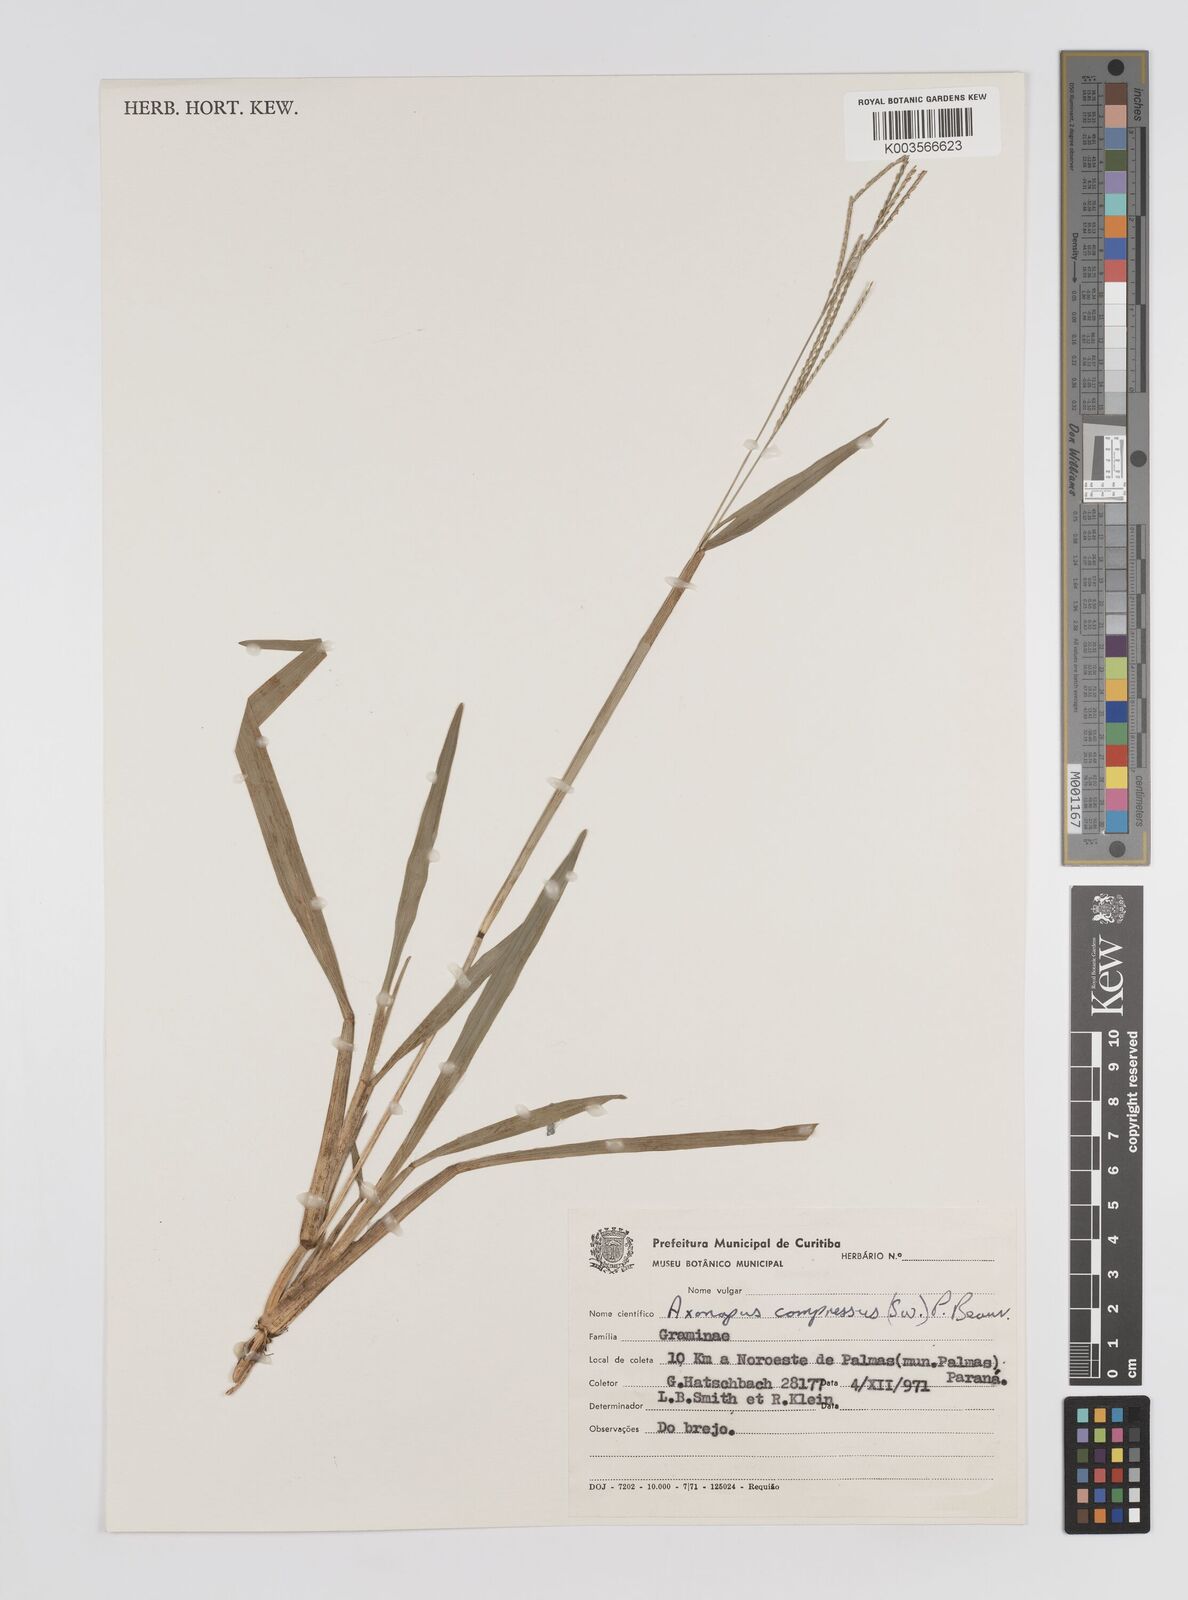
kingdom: Plantae
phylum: Tracheophyta
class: Liliopsida
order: Poales
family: Poaceae
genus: Axonopus
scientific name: Axonopus compressus
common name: American carpet grass
